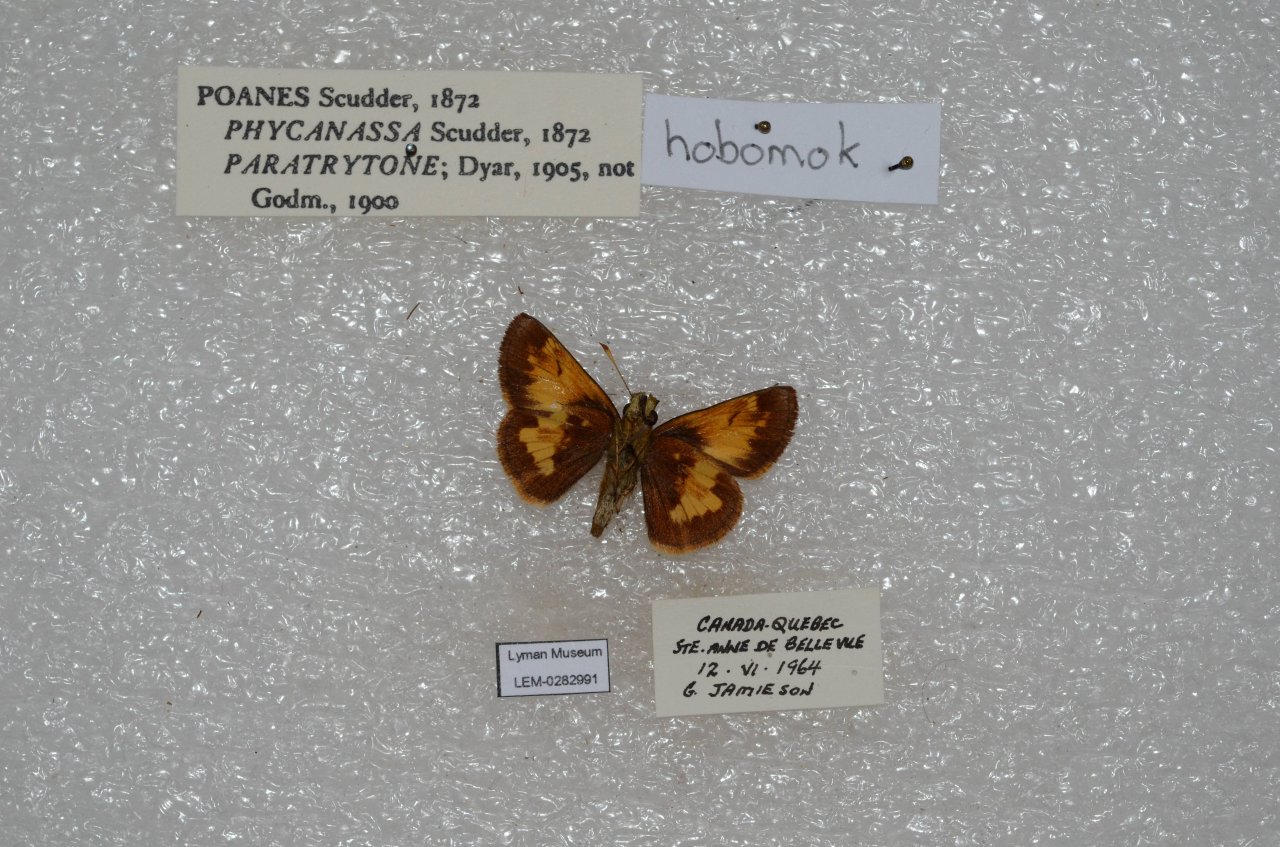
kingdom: Animalia
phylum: Arthropoda
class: Insecta
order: Lepidoptera
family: Hesperiidae
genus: Lon
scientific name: Lon hobomok
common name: Hobomok Skipper
